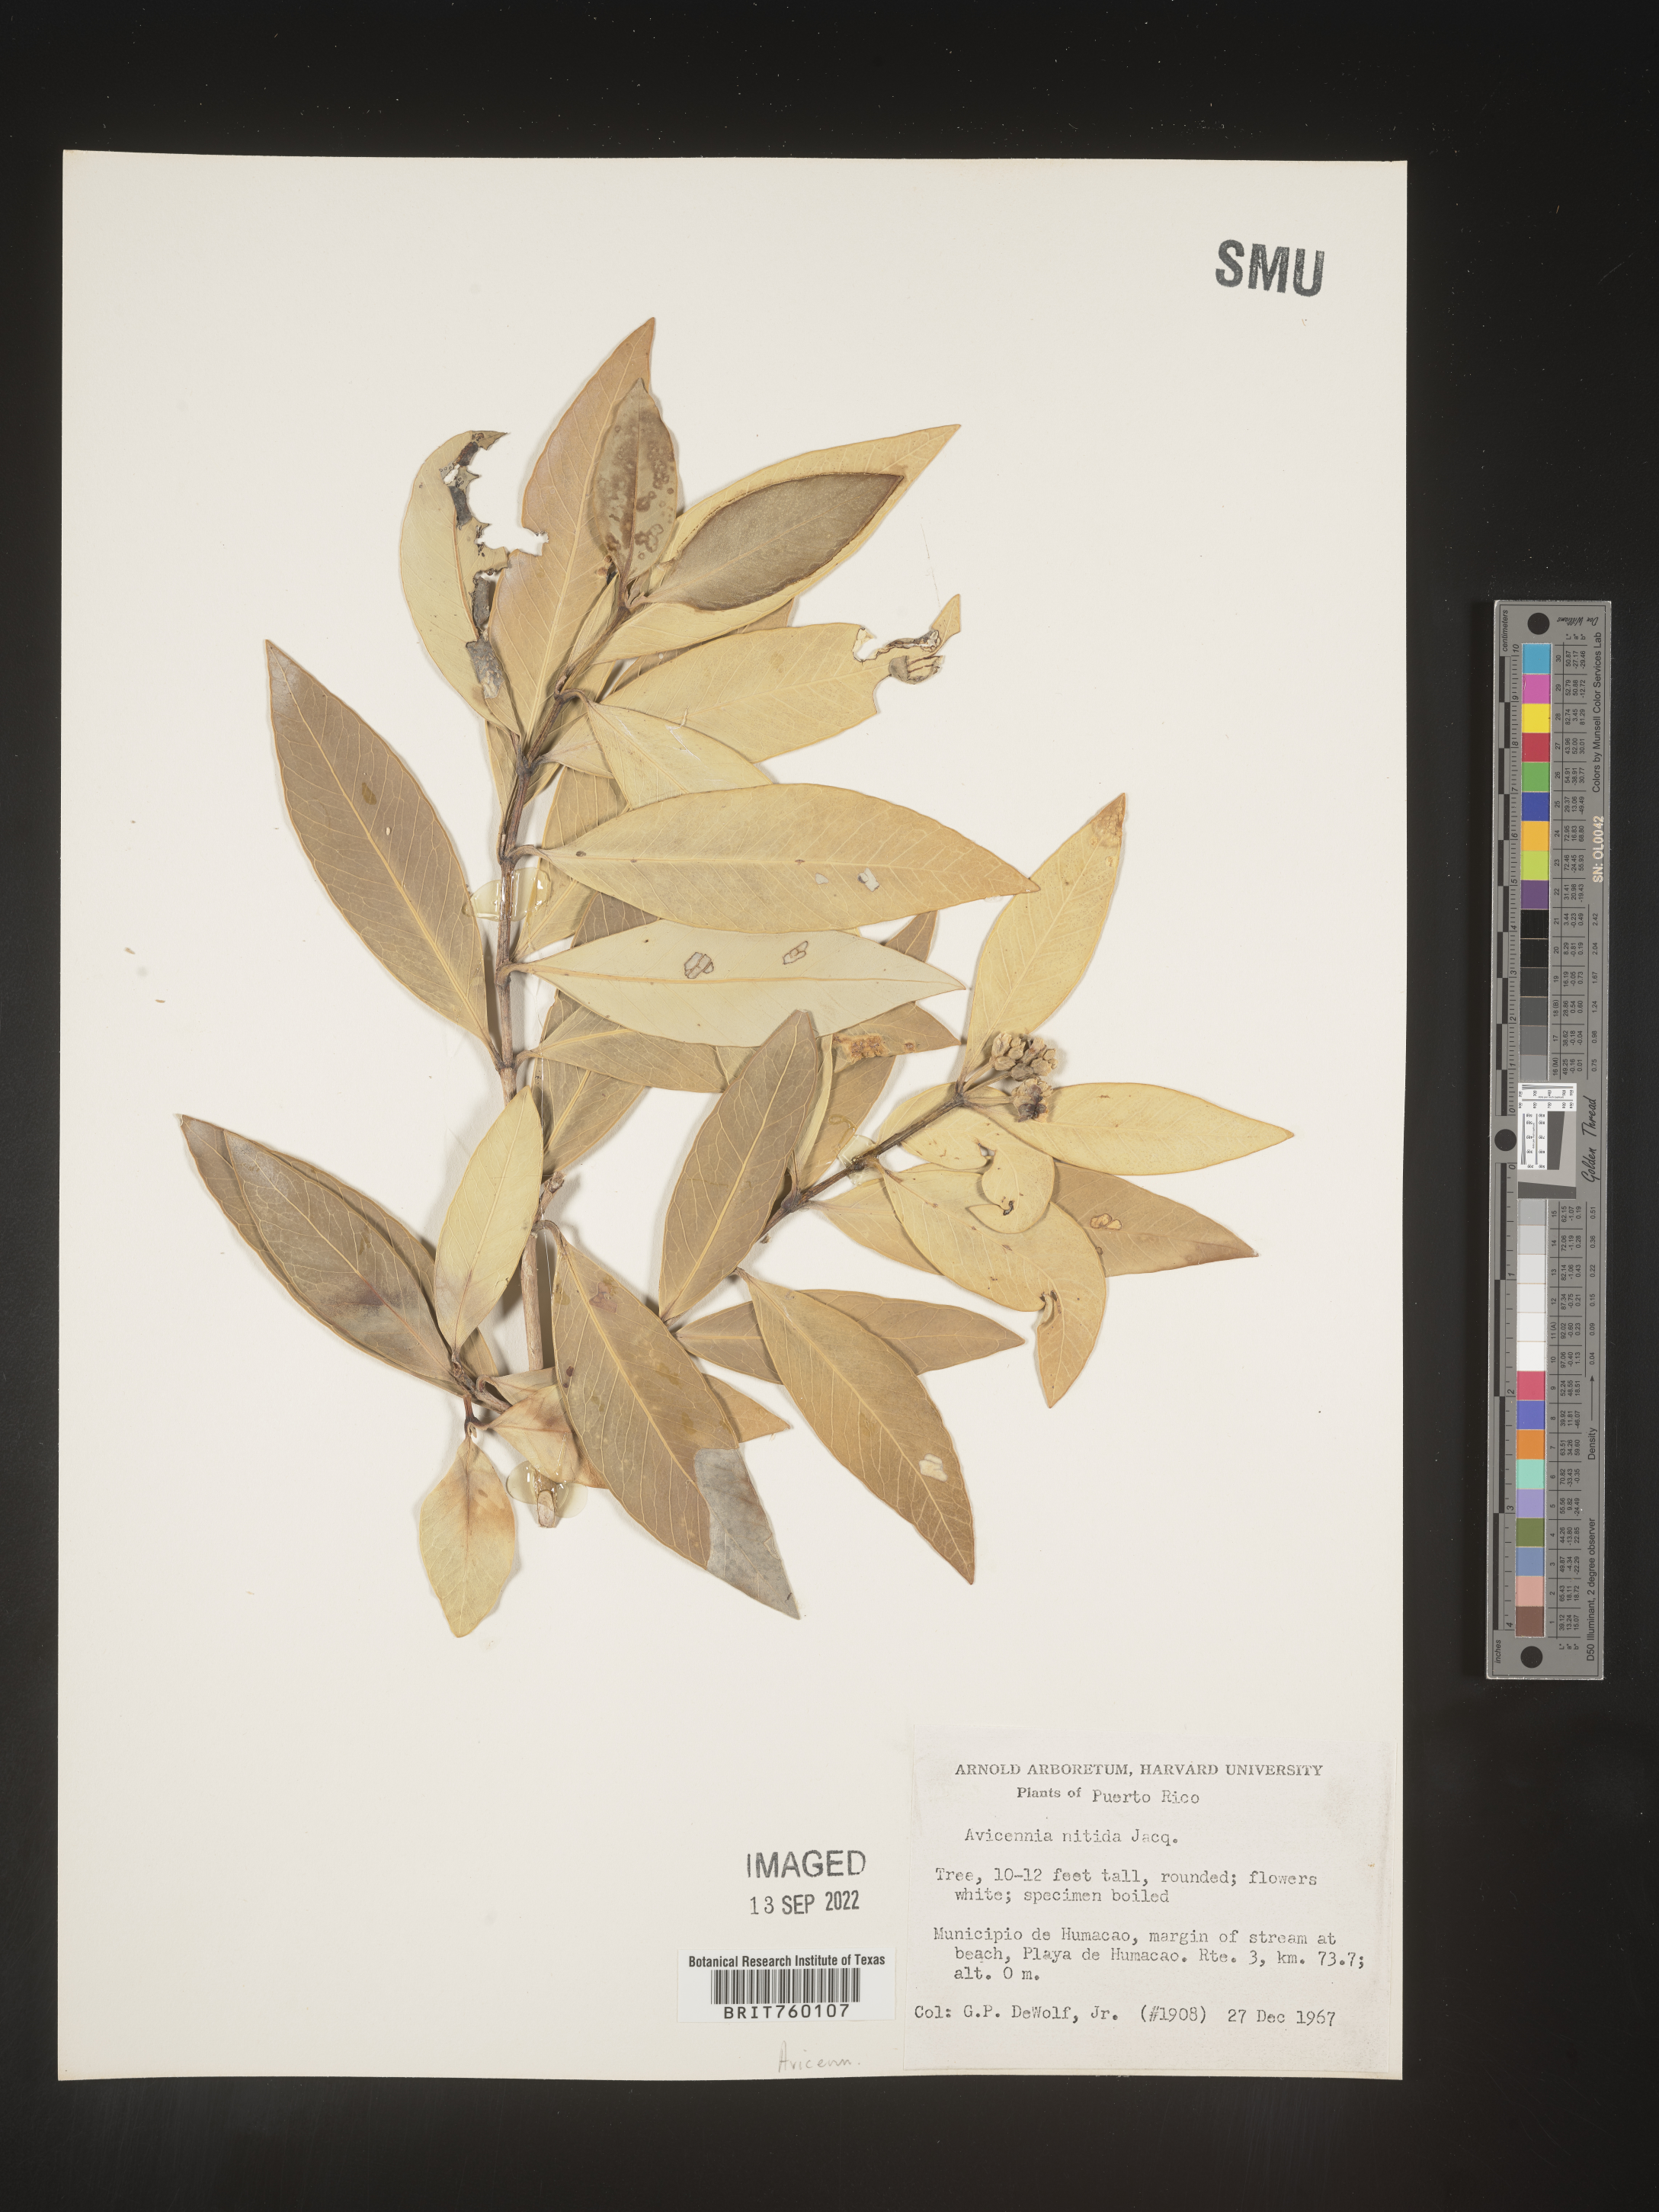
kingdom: Plantae
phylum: Tracheophyta
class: Magnoliopsida
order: Lamiales
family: Acanthaceae
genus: Avicennia
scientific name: Avicennia
